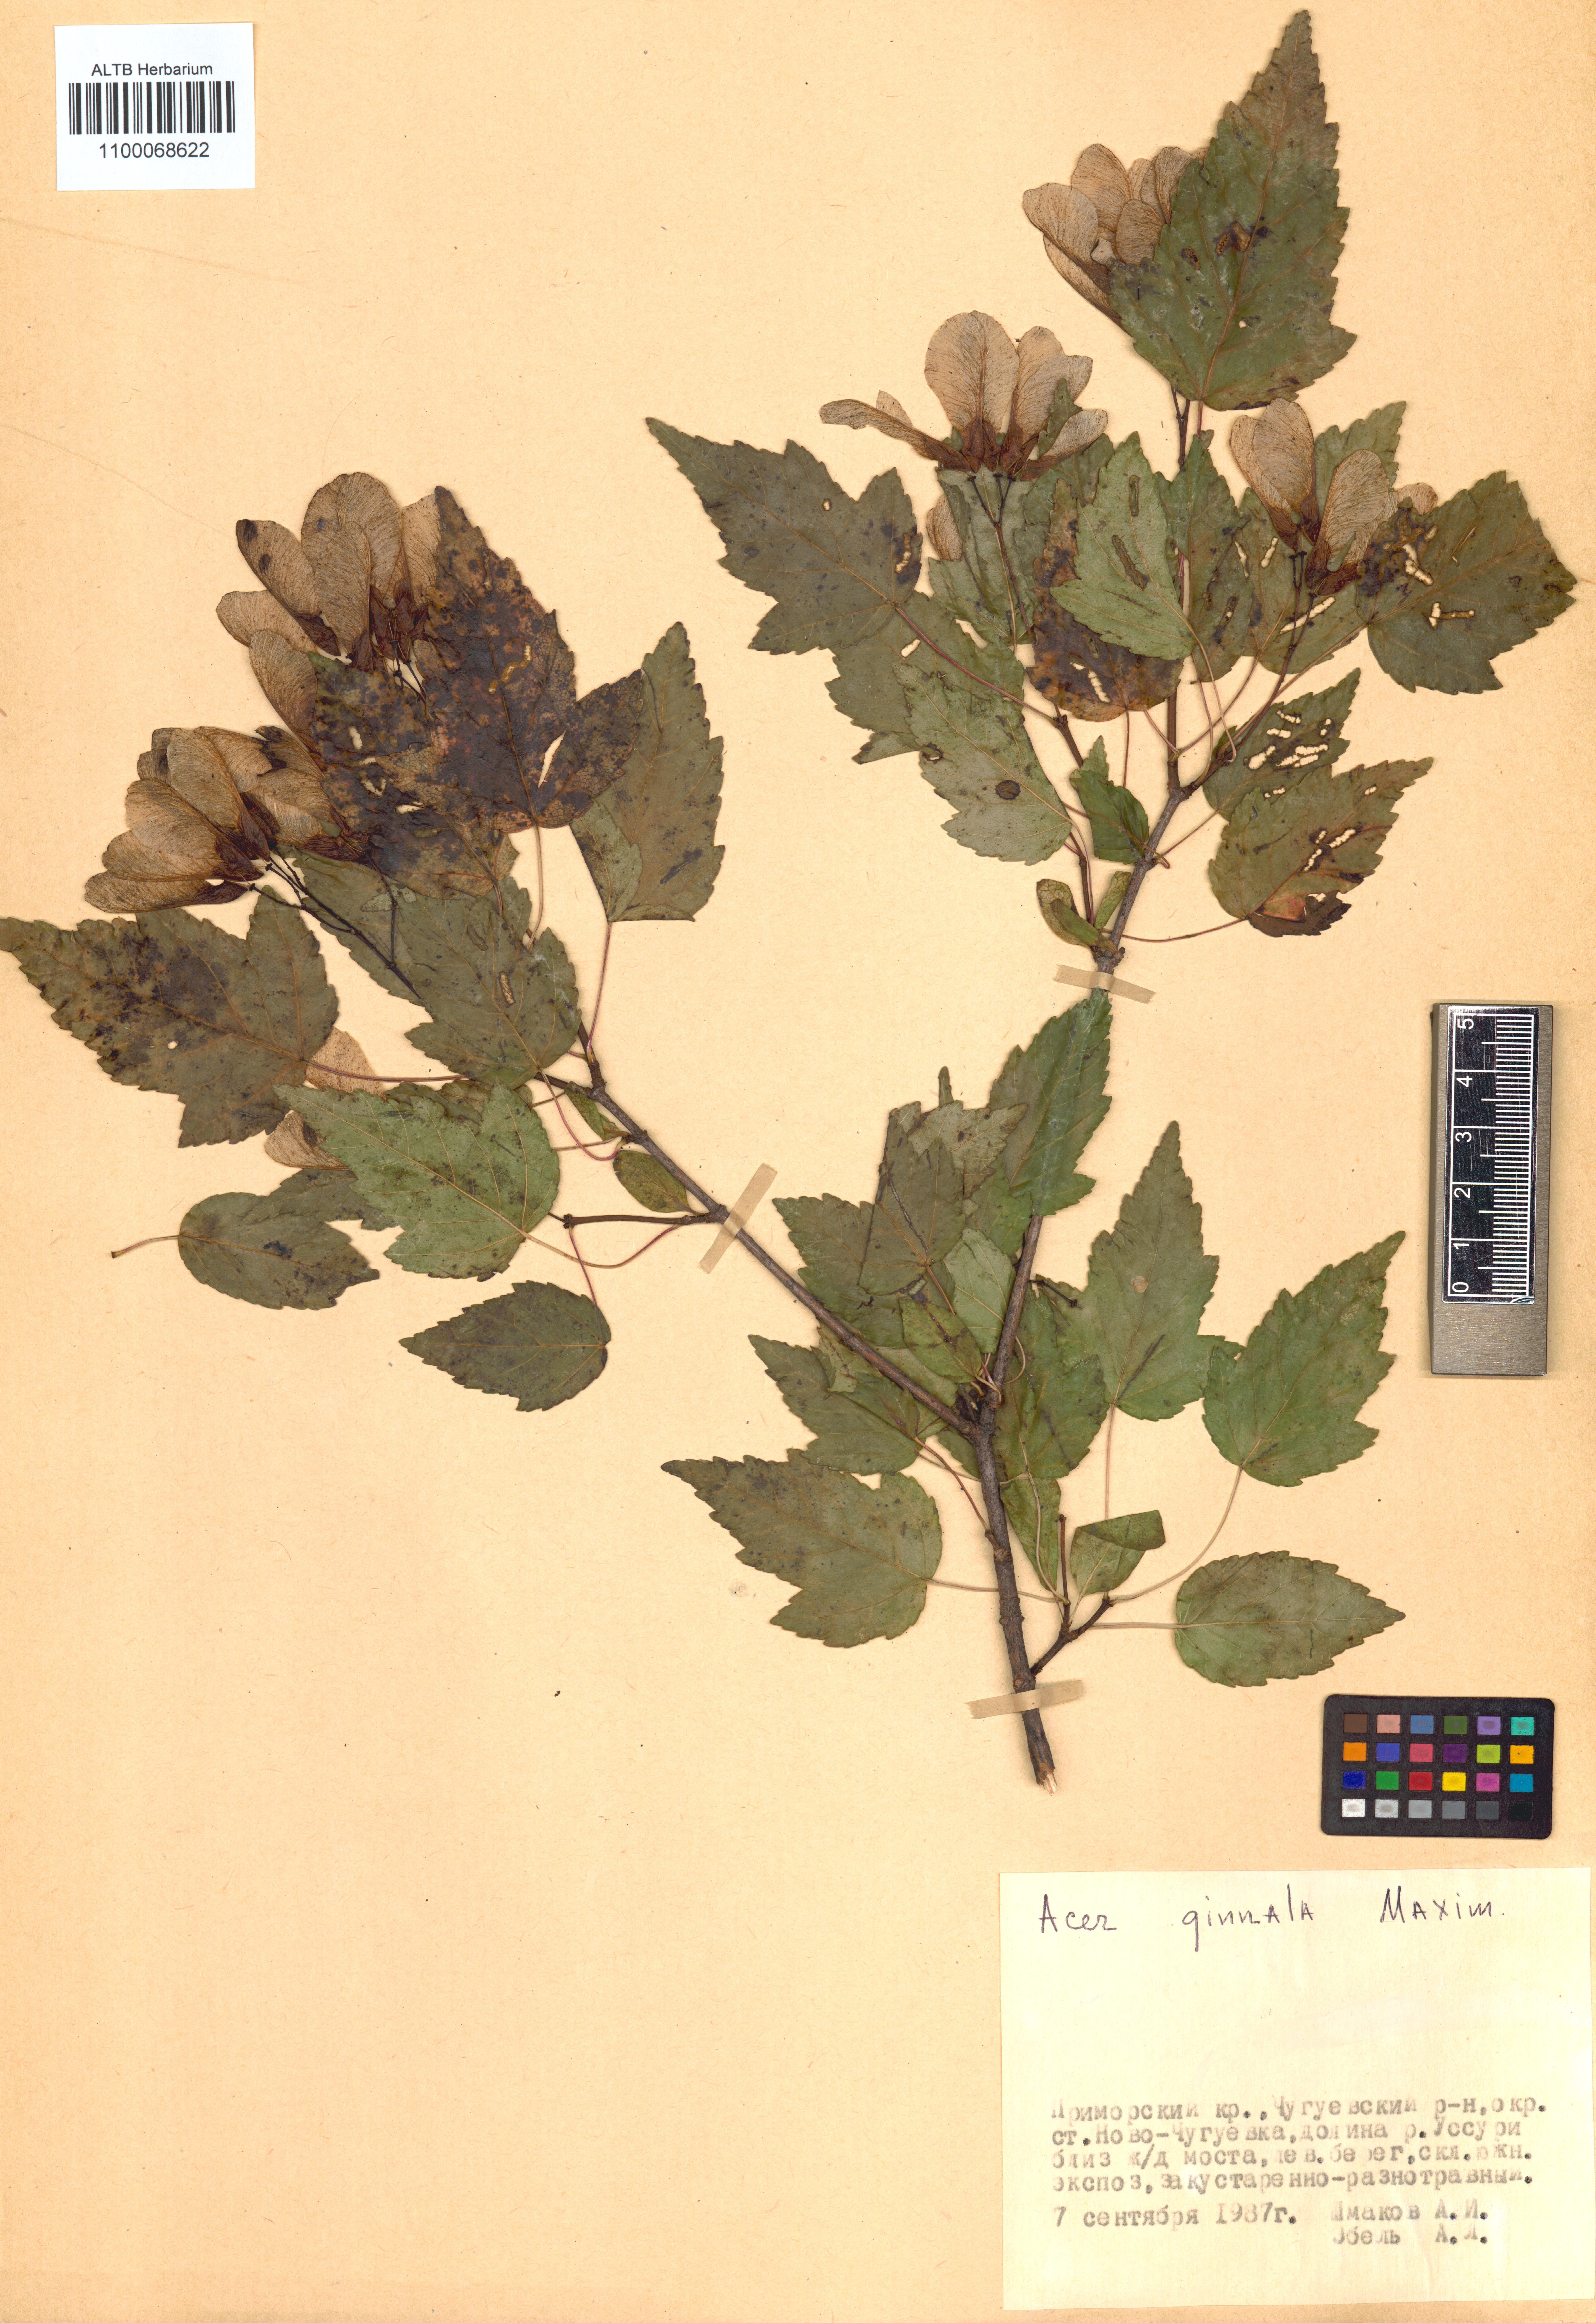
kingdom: Plantae
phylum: Tracheophyta
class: Magnoliopsida
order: Sapindales
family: Sapindaceae
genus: Acer
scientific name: Acer tataricum
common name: Tartar maple
